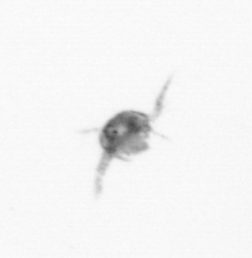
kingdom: Animalia
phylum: Arthropoda
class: Copepoda
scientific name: Copepoda
